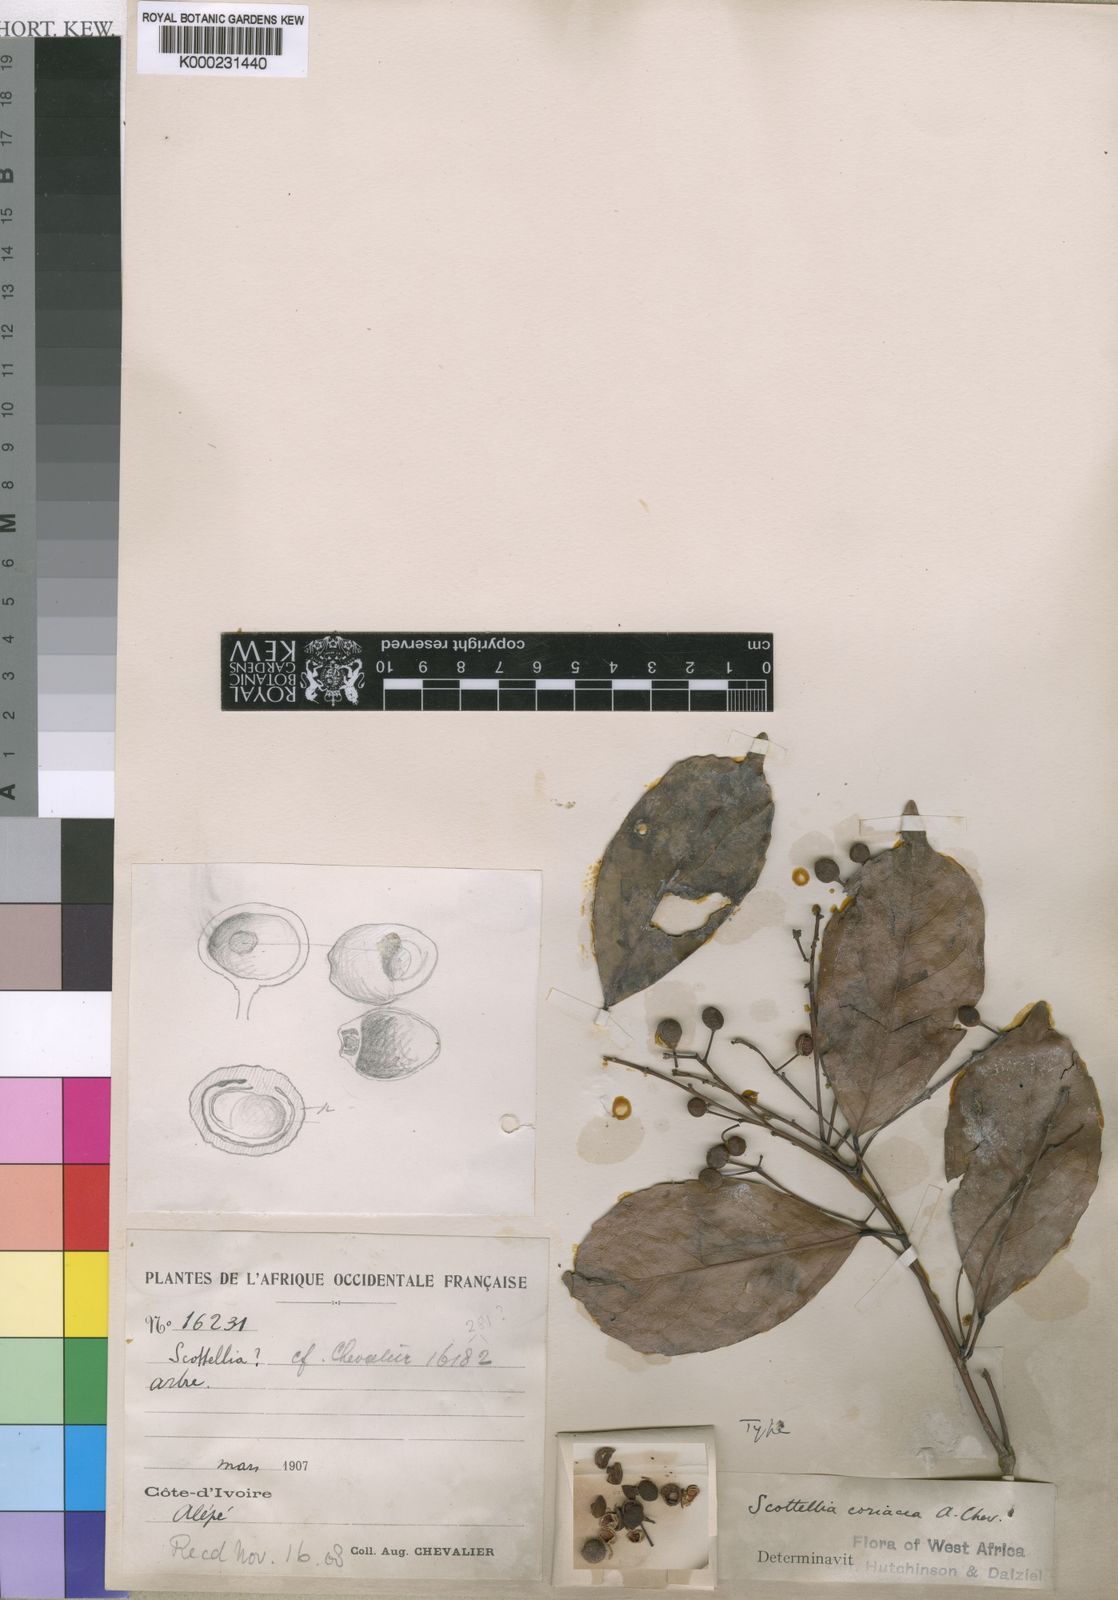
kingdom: Plantae
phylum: Tracheophyta
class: Magnoliopsida
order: Malpighiales
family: Achariaceae
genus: Scottellia
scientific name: Scottellia klaineana
